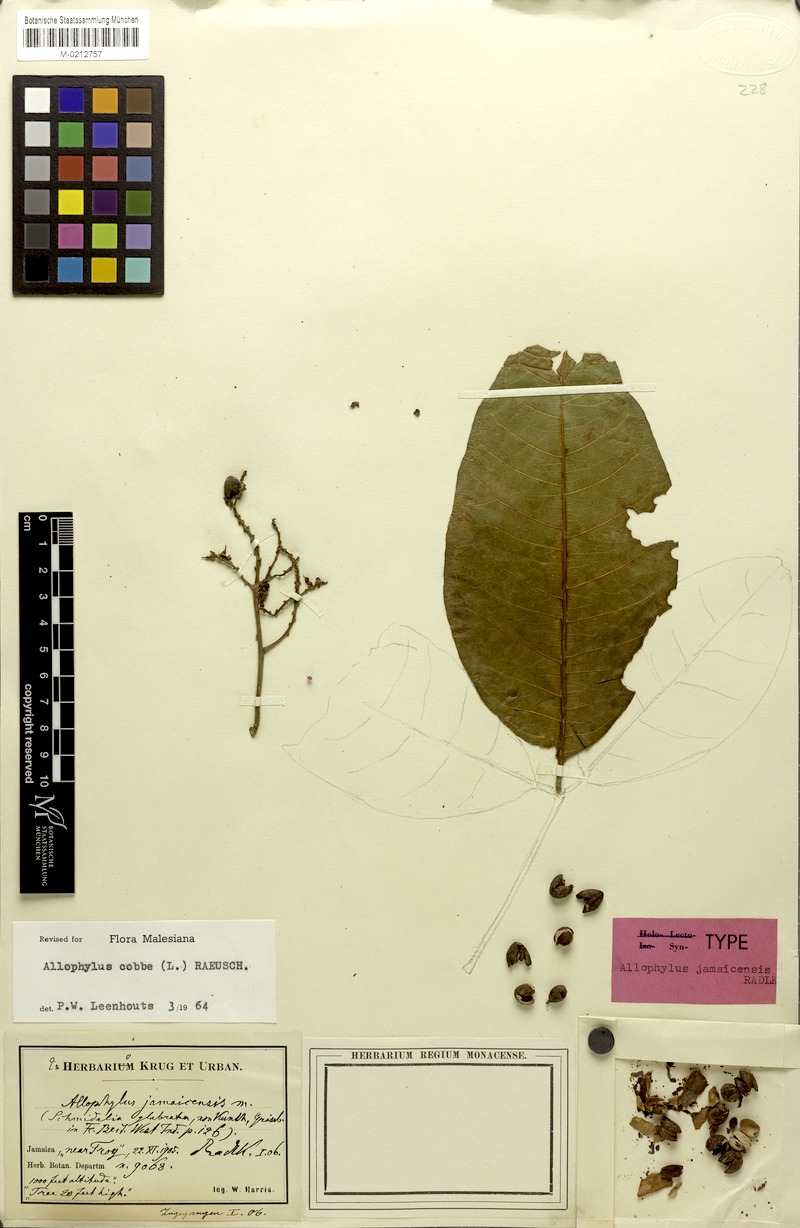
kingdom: Plantae
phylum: Tracheophyta
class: Magnoliopsida
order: Sapindales
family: Sapindaceae
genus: Allophylus
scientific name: Allophylus jamaicensis
